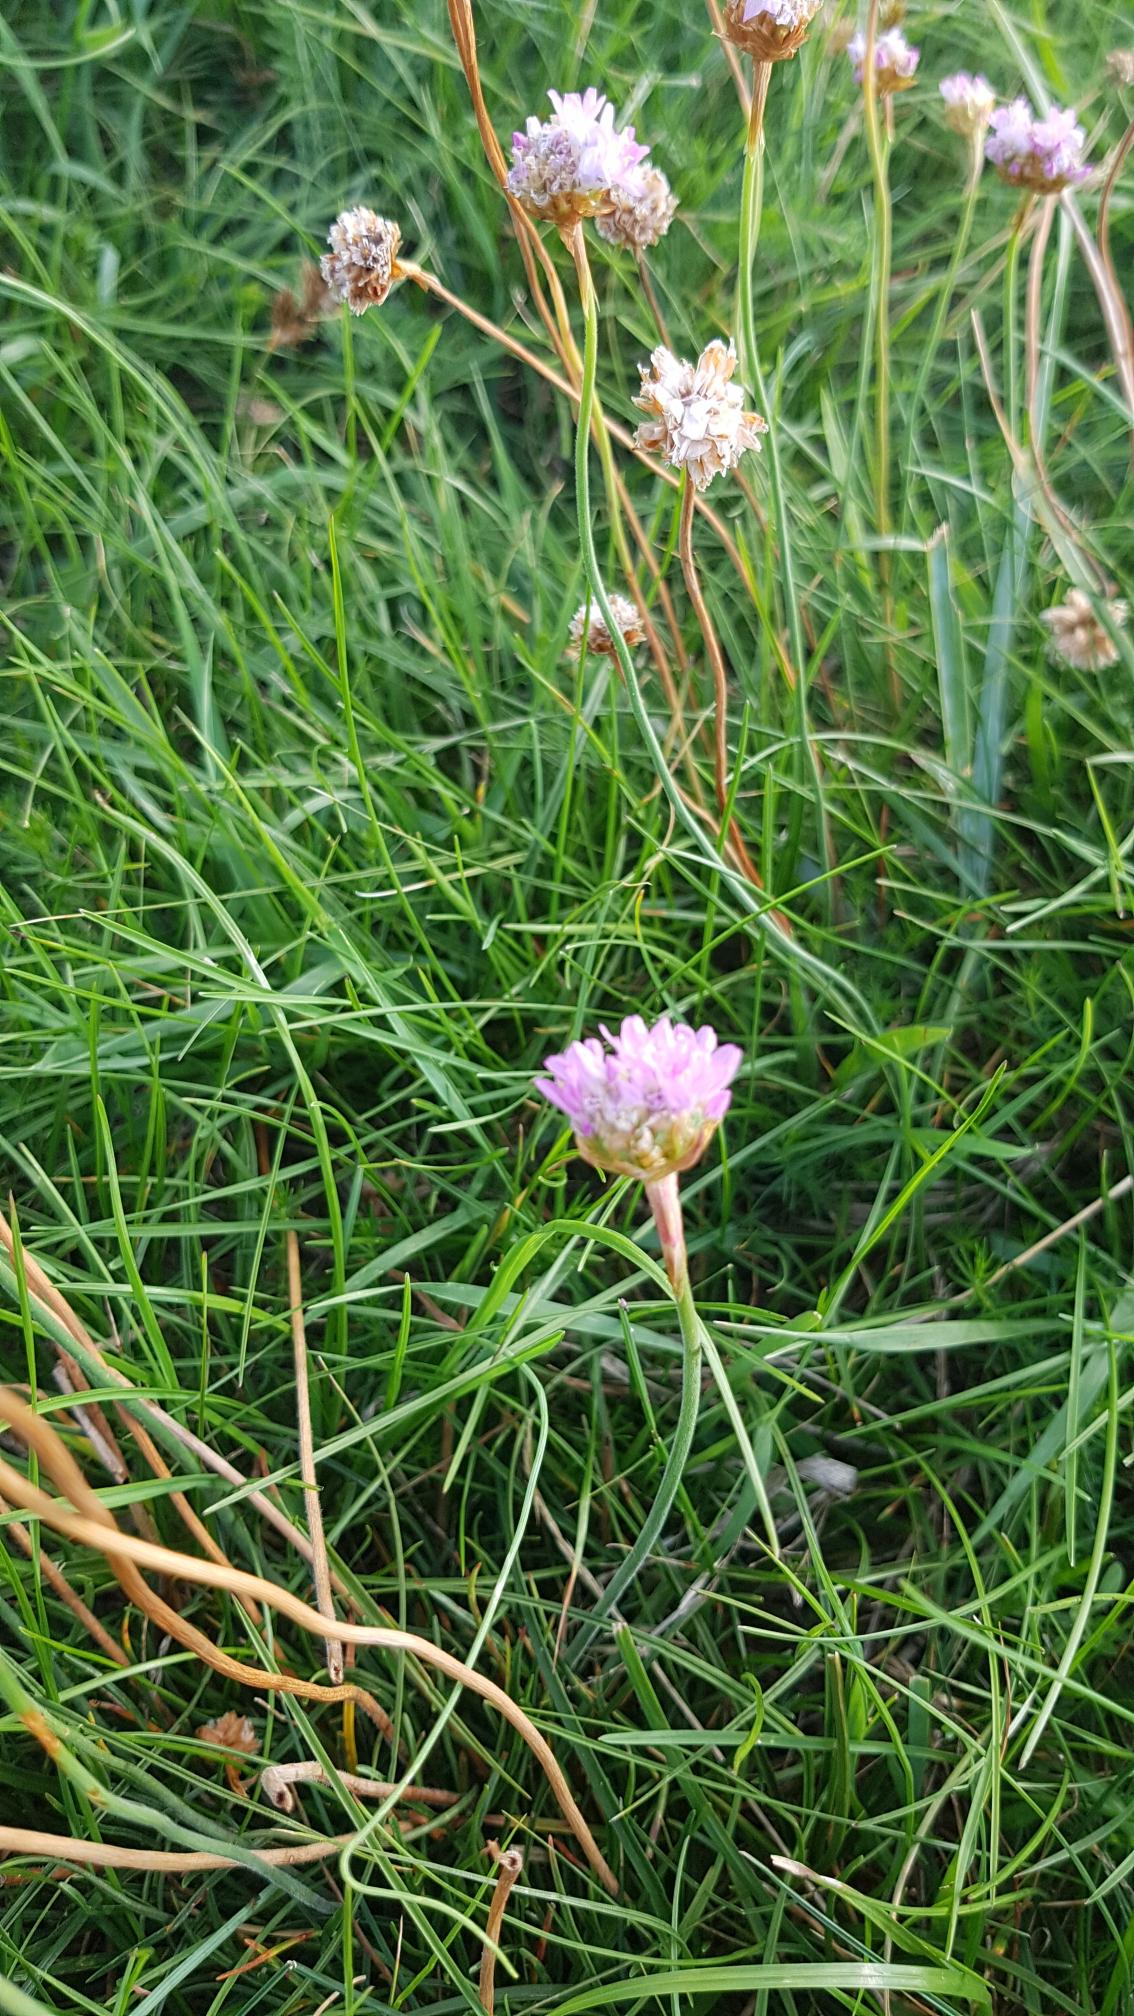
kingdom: Plantae
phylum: Tracheophyta
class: Magnoliopsida
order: Caryophyllales
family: Plumbaginaceae
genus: Armeria
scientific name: Armeria maritima
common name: Engelskgræs
